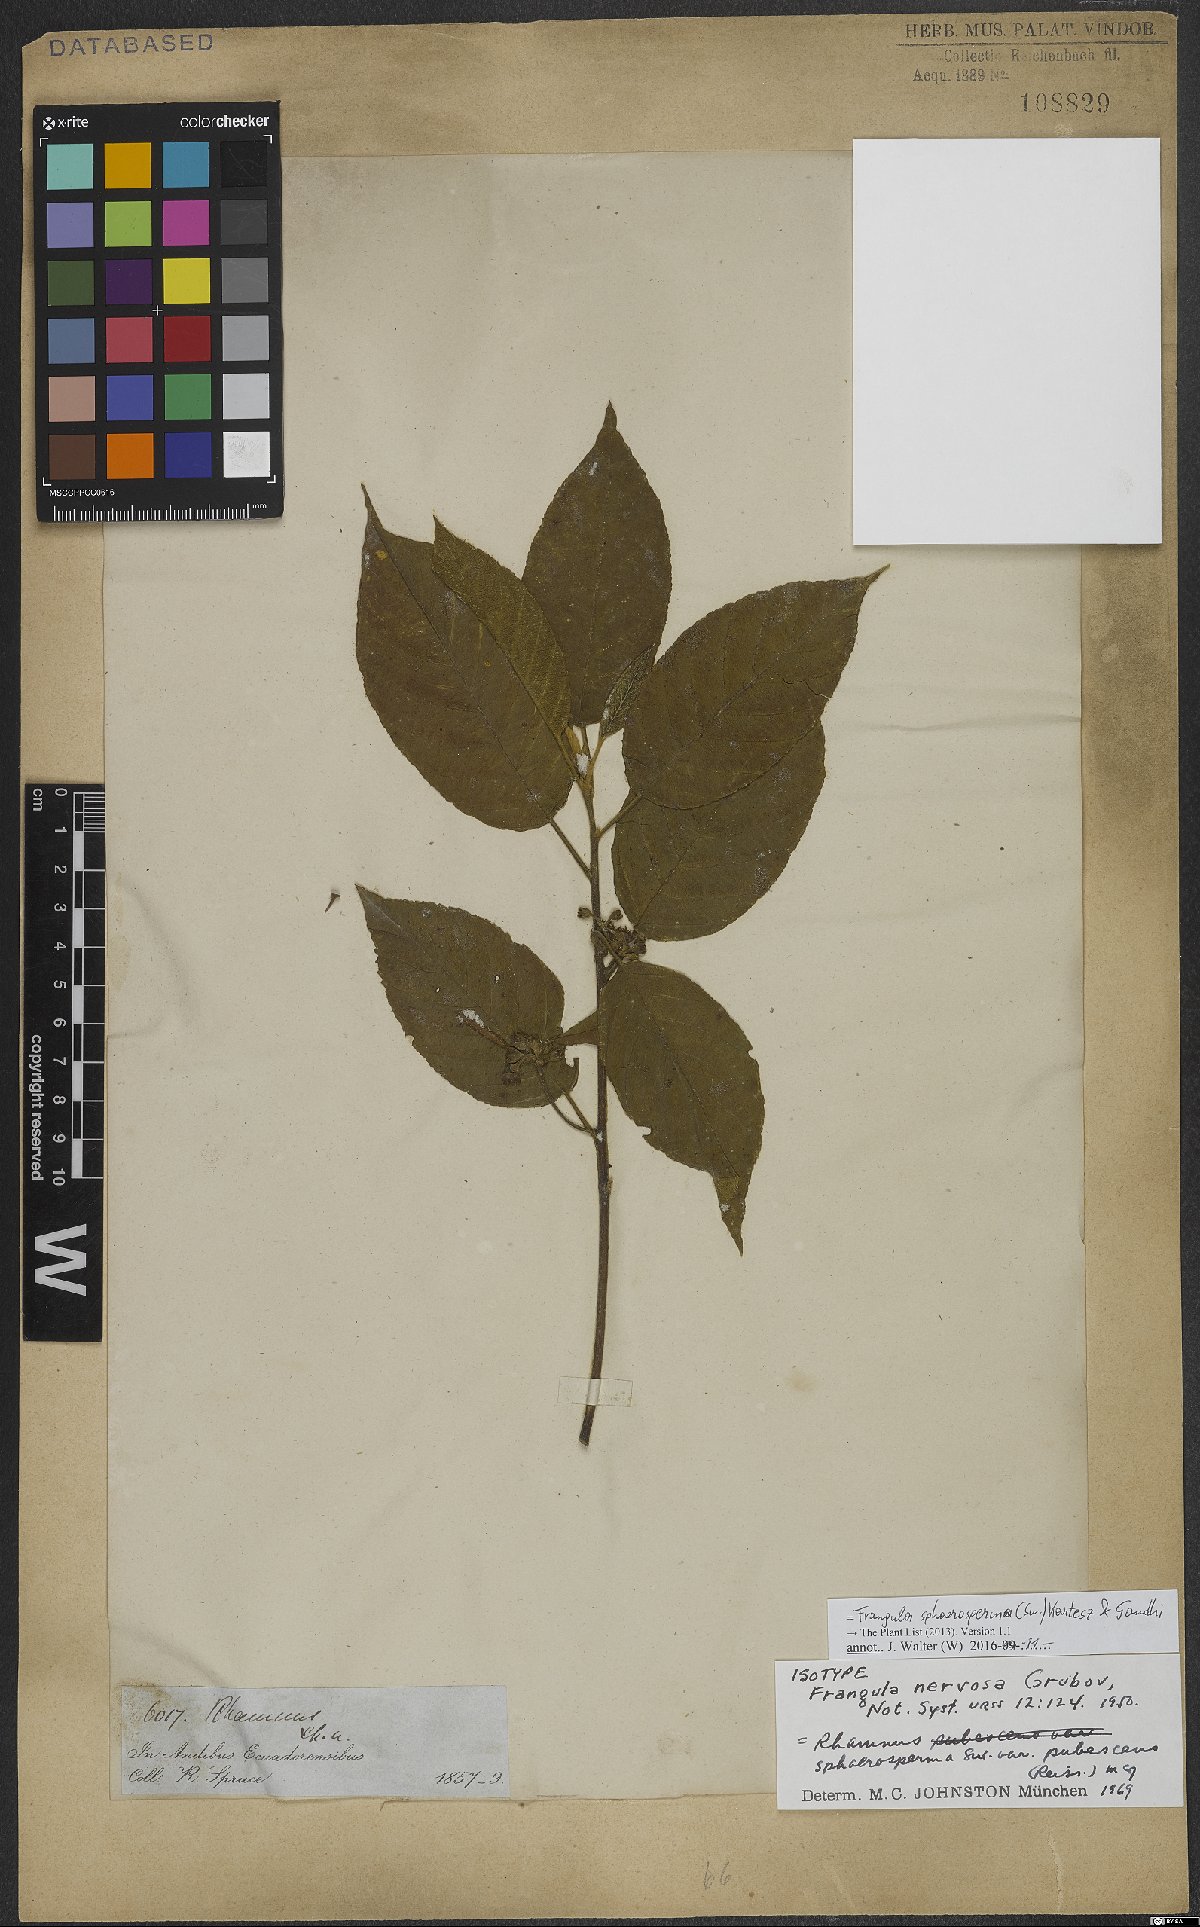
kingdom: Plantae
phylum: Tracheophyta
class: Magnoliopsida
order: Rosales
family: Rhamnaceae
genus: Frangula
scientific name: Frangula sphaerosperma
